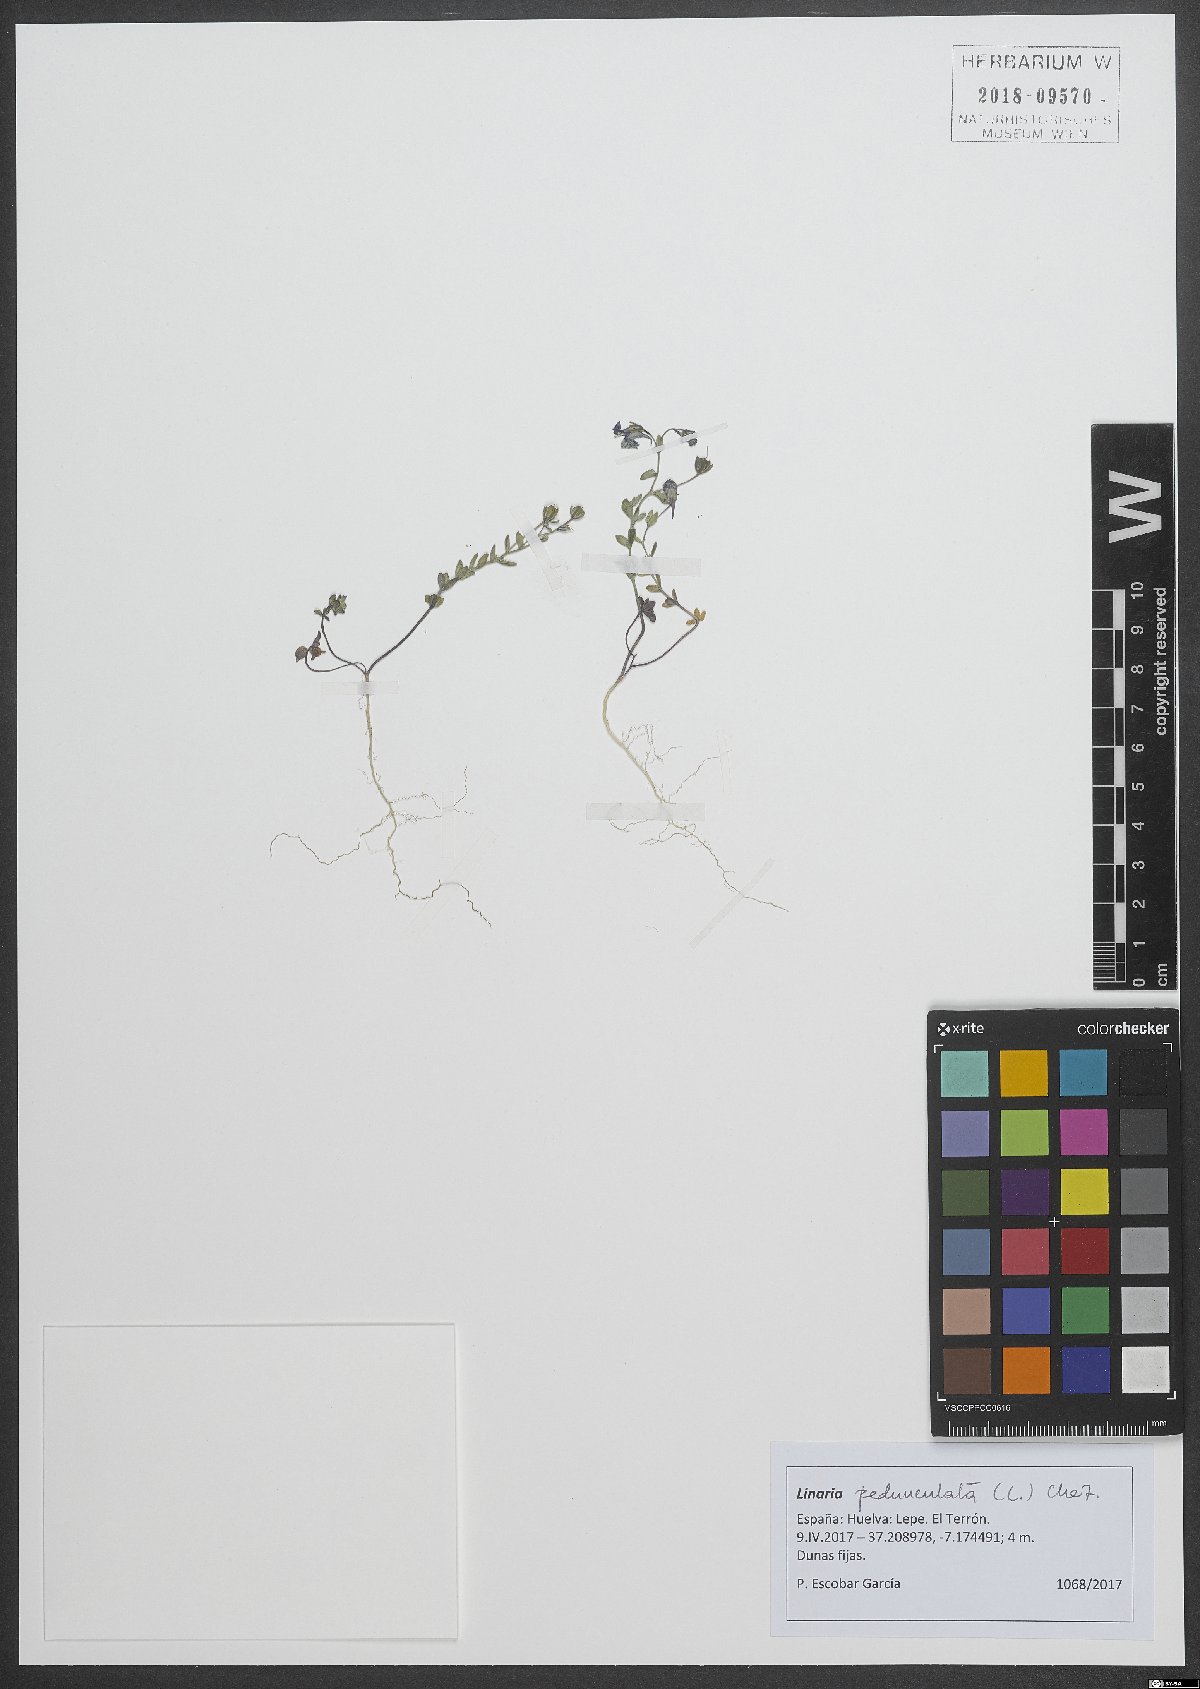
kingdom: Plantae
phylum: Tracheophyta
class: Magnoliopsida
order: Lamiales
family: Plantaginaceae
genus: Linaria
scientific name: Linaria pedunculata
